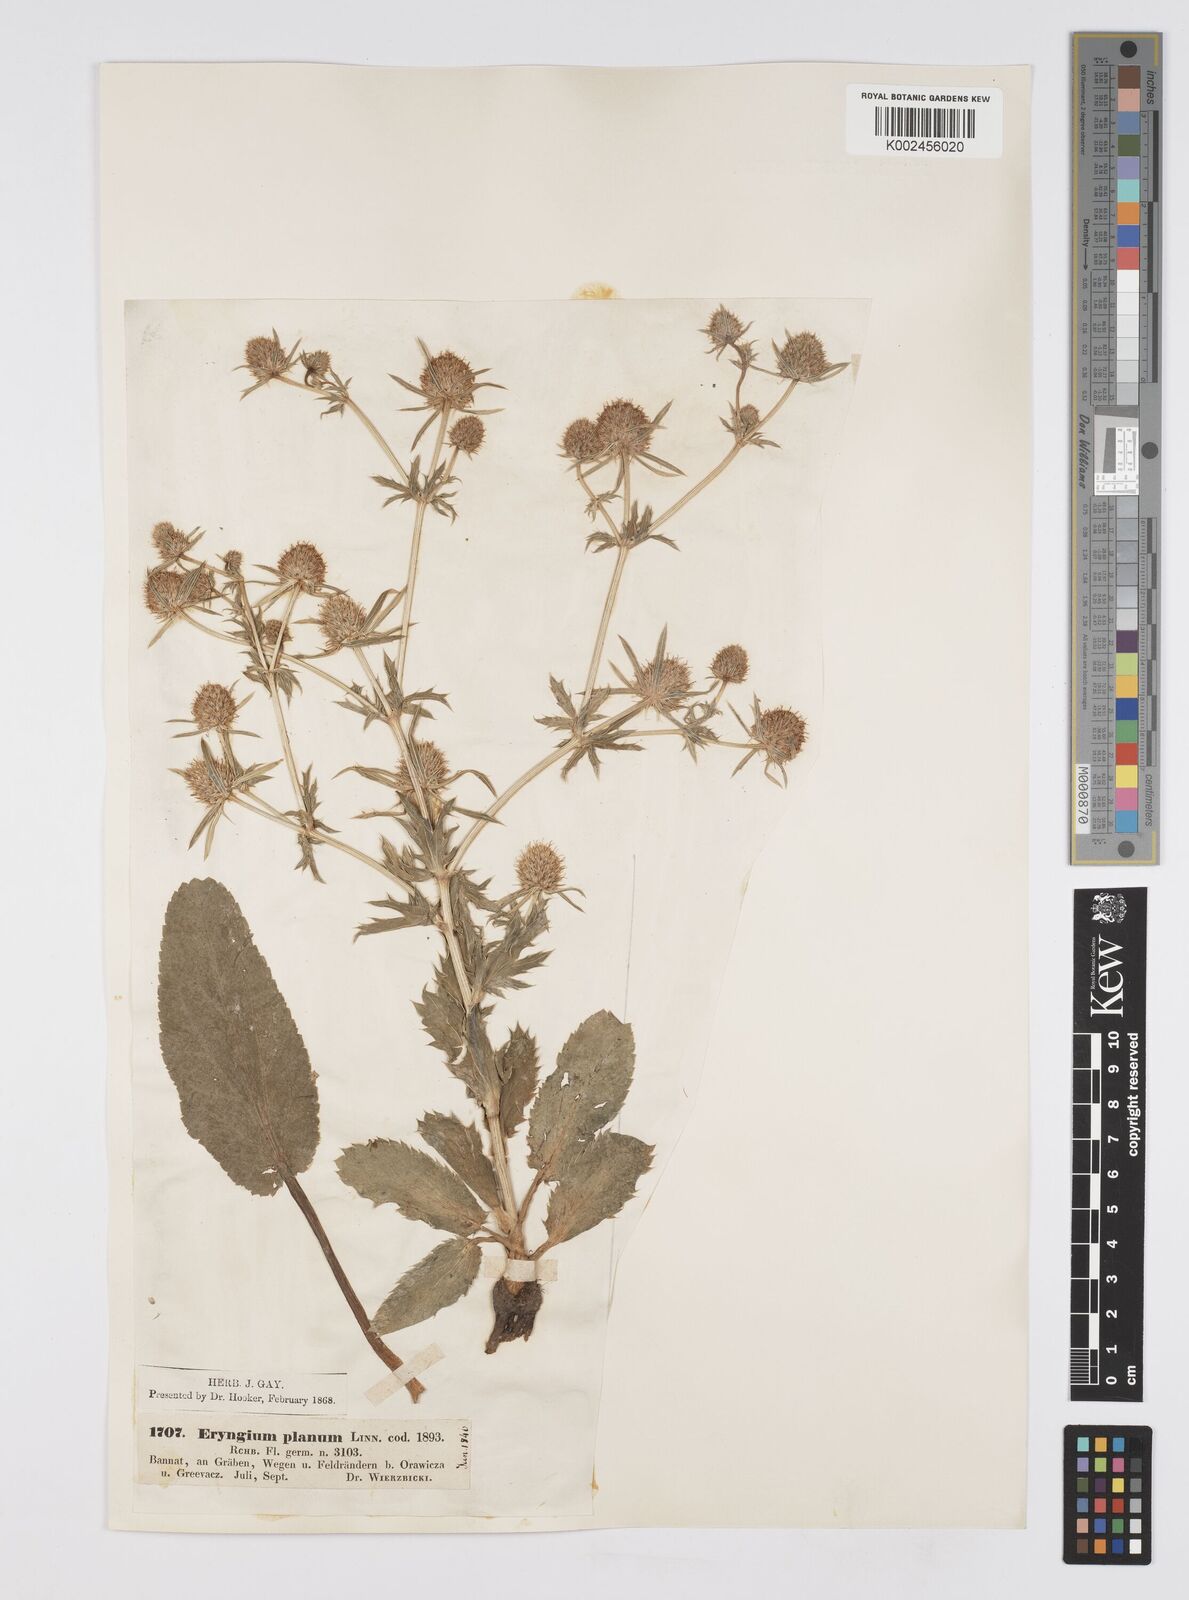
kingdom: Plantae
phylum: Tracheophyta
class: Magnoliopsida
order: Apiales
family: Apiaceae
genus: Eryngium
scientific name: Eryngium planum
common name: Blue eryngo
